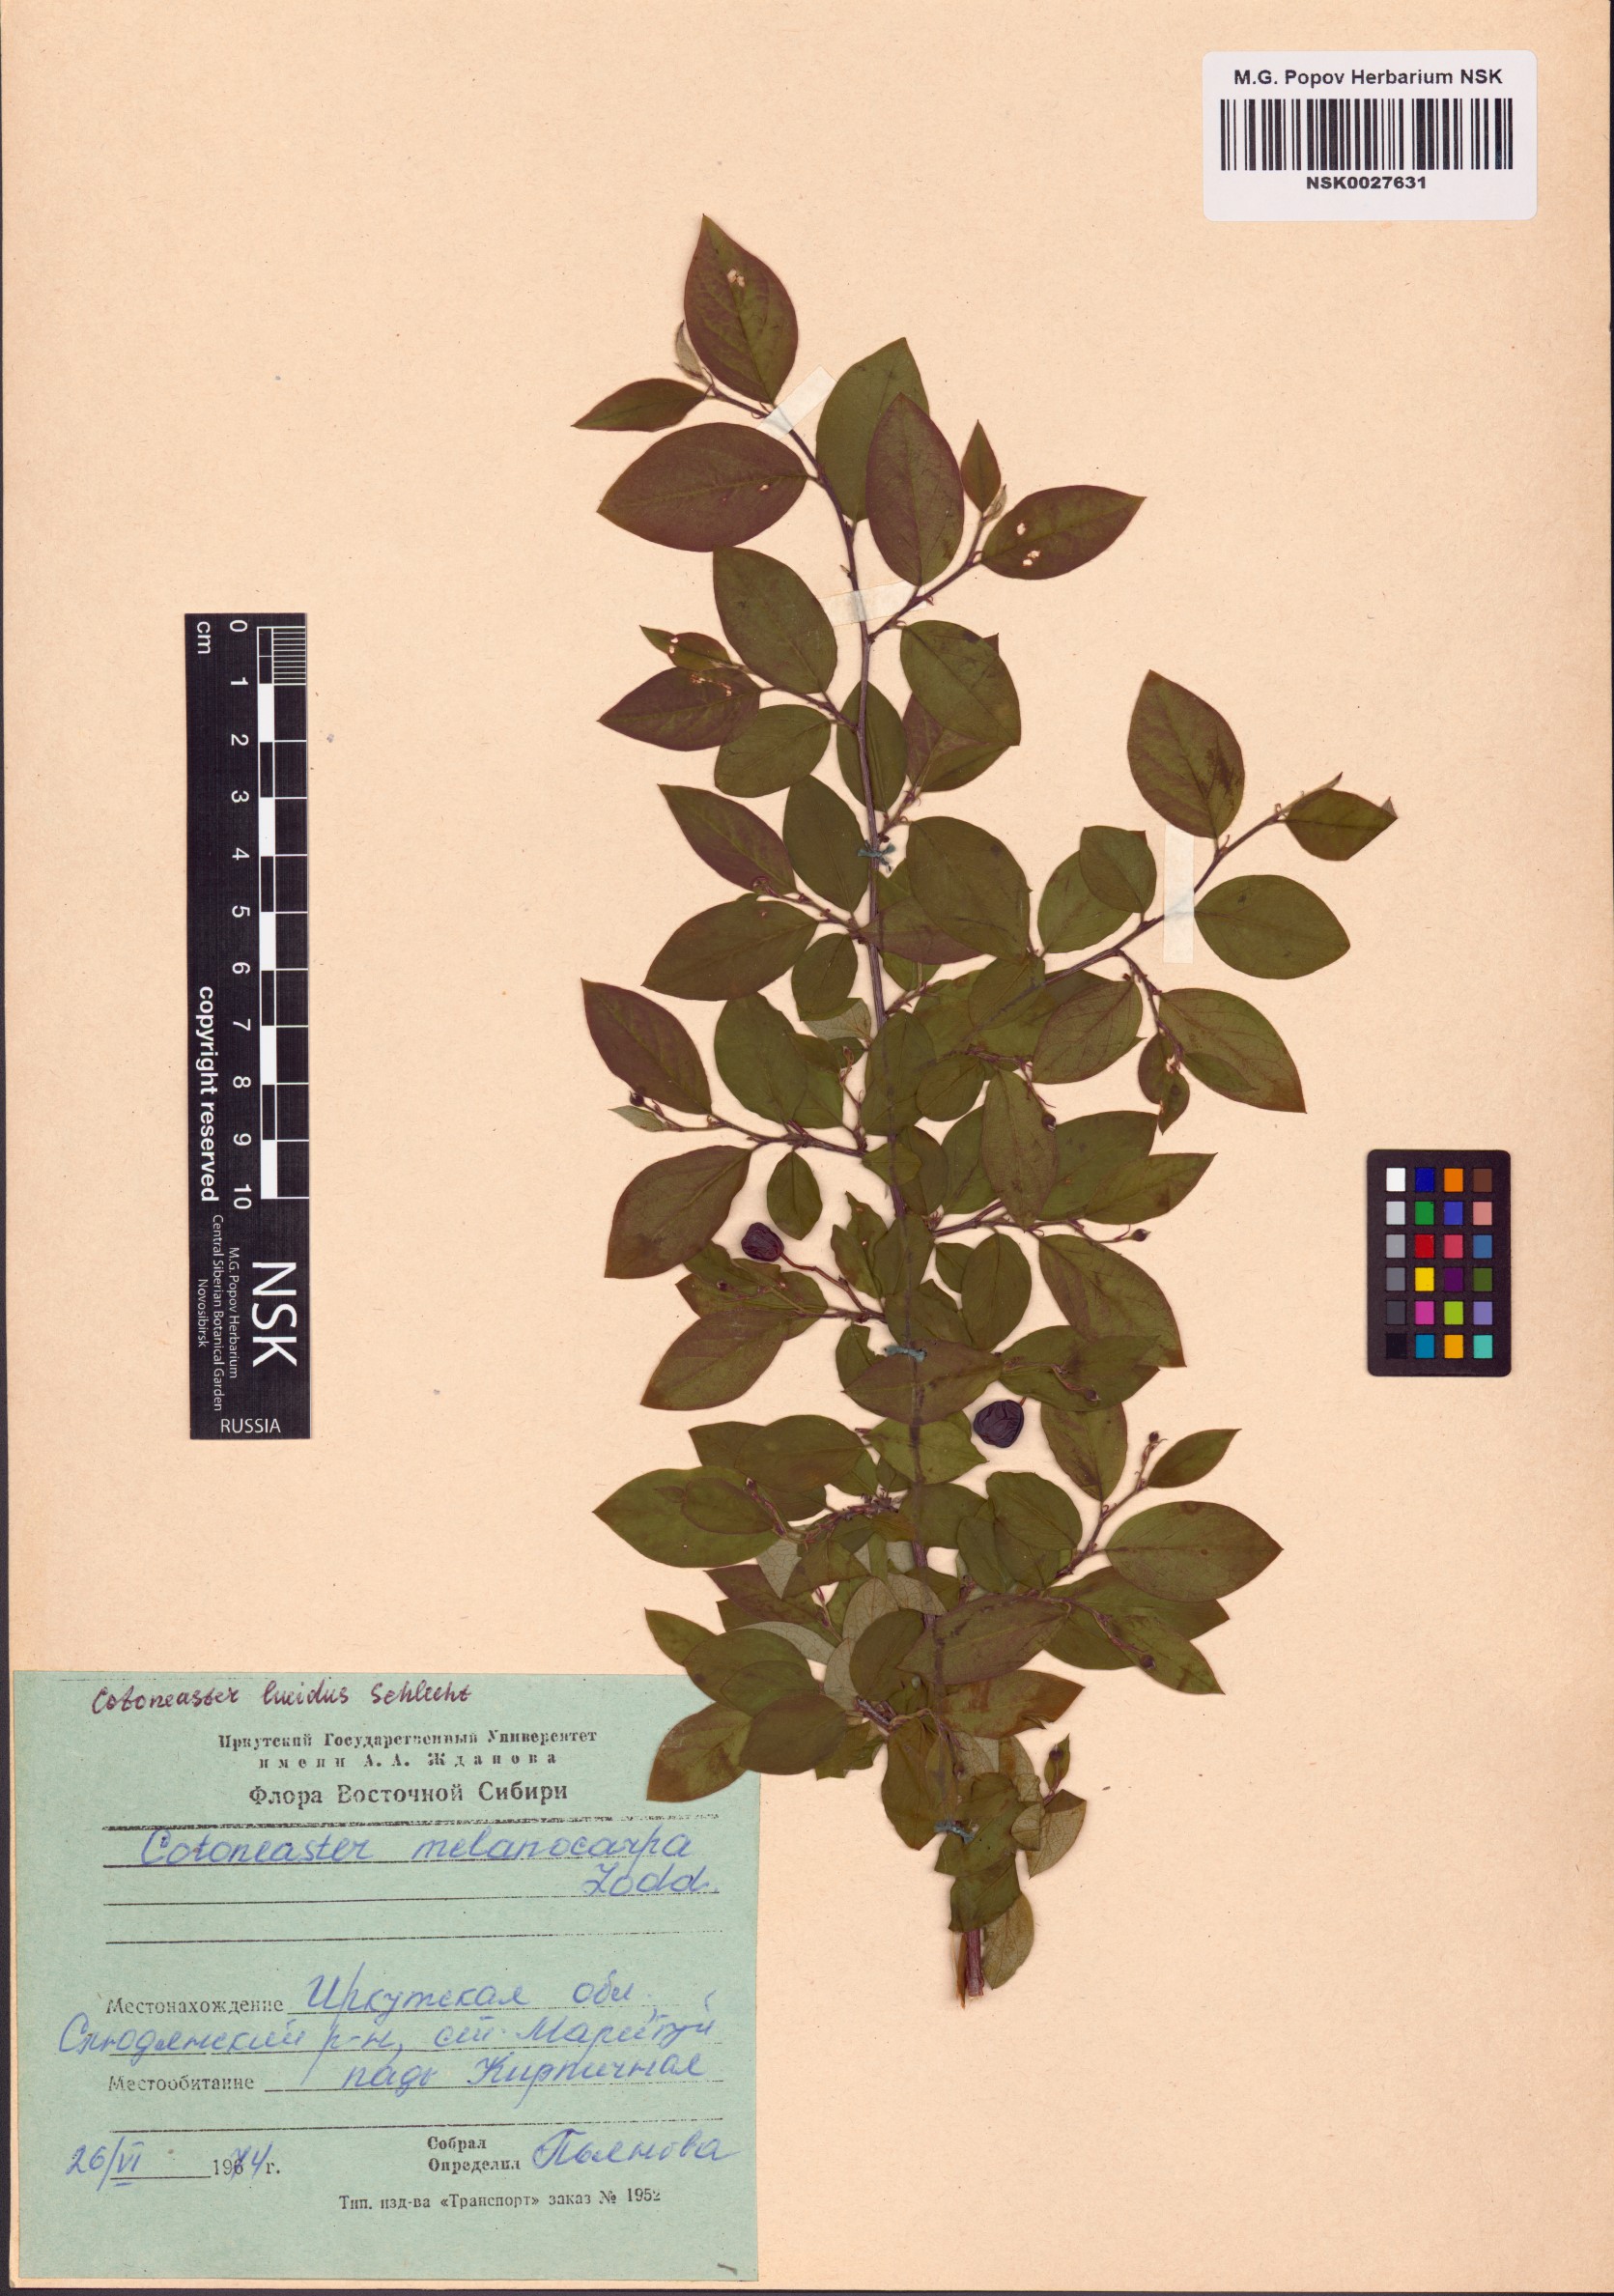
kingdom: Plantae
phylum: Tracheophyta
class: Magnoliopsida
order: Rosales
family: Rosaceae
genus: Cotoneaster
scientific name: Cotoneaster acutifolius
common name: Peking cotoneaster
